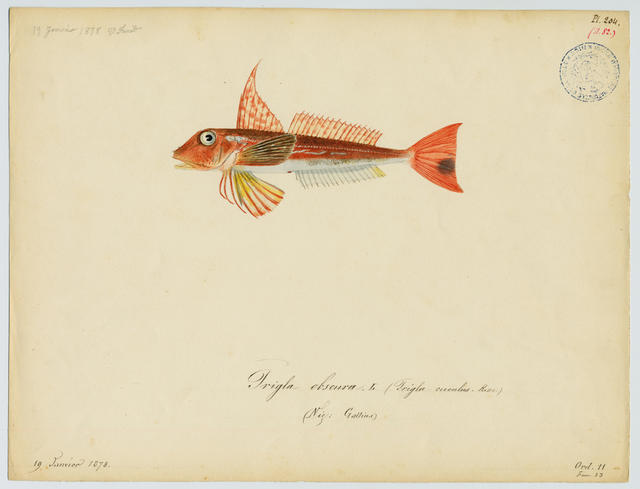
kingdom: Animalia
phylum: Chordata
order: Scorpaeniformes
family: Triglidae
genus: Chelidonichthys
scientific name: Chelidonichthys obscurus
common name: Long-finned gurnard
